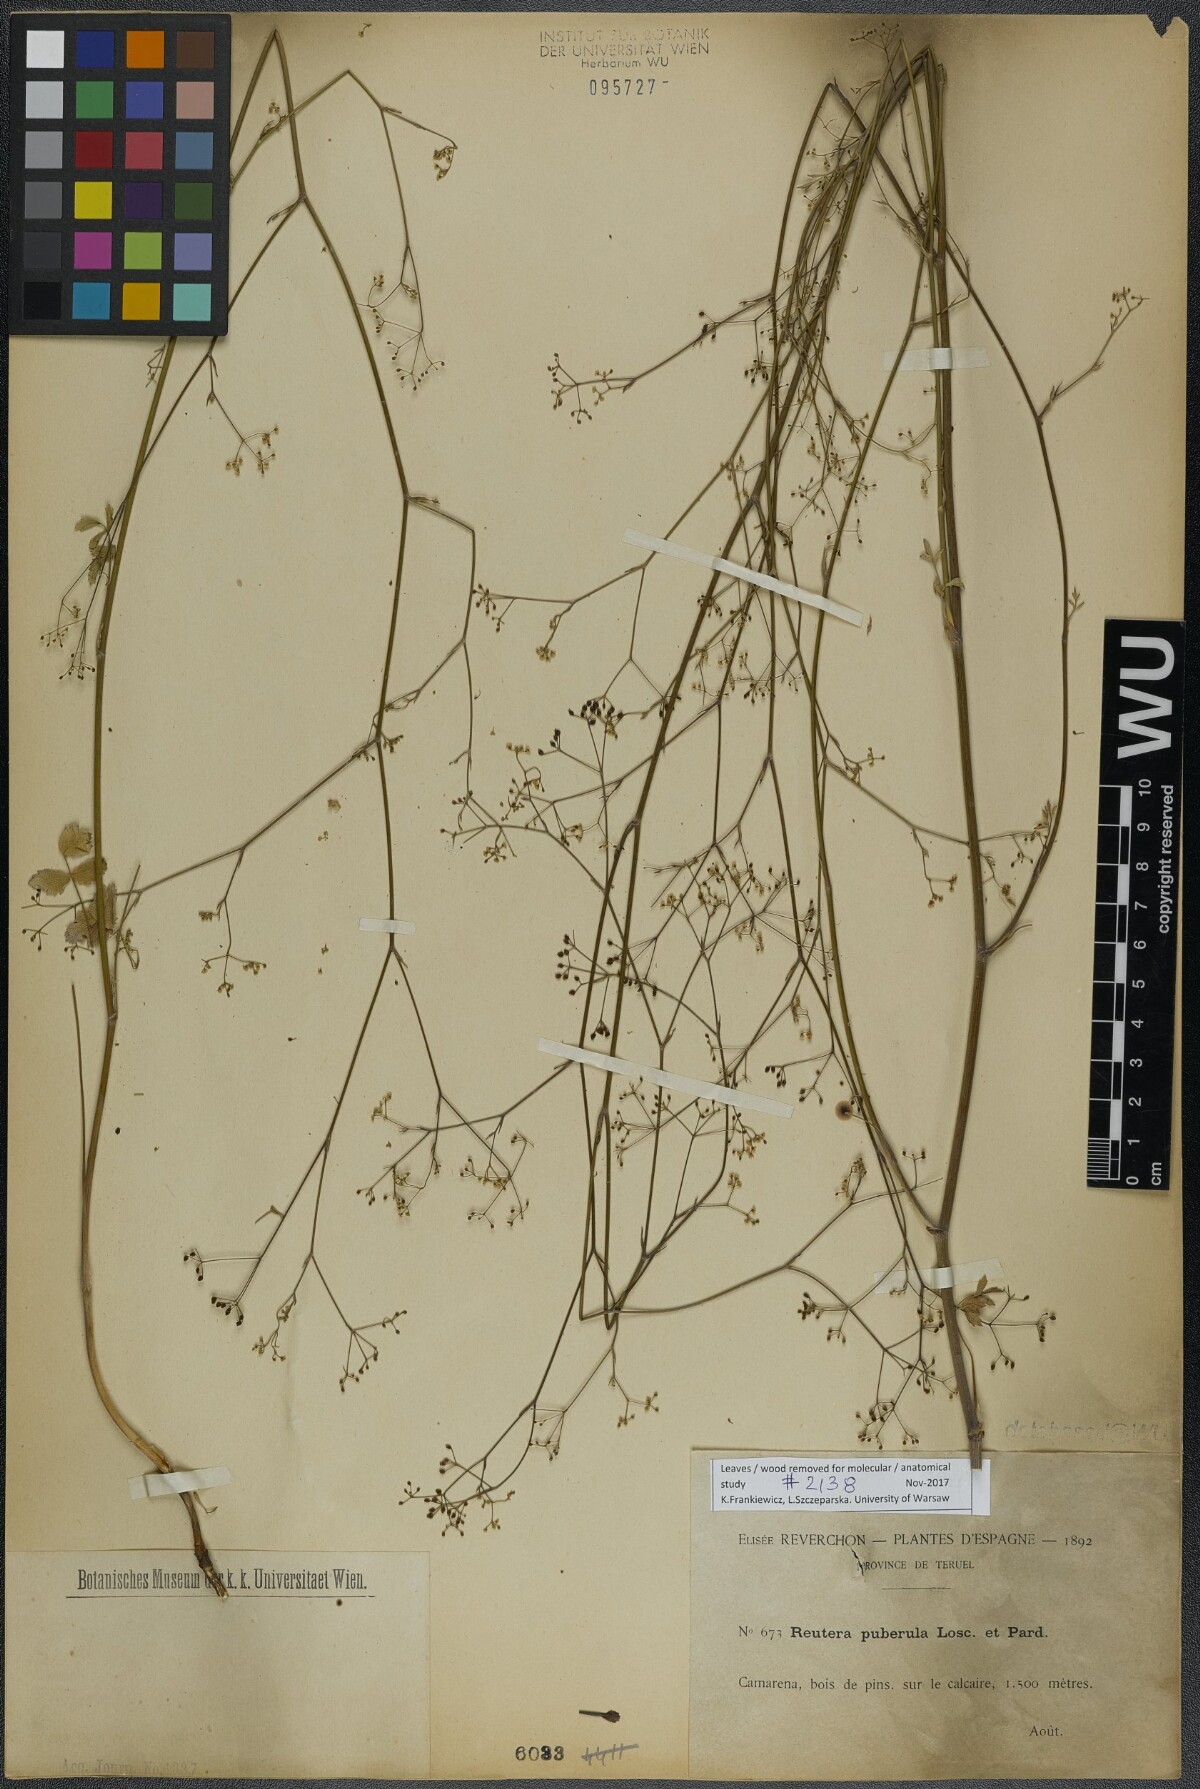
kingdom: Plantae
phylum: Tracheophyta
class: Magnoliopsida
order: Apiales
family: Apiaceae
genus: Pimpinella
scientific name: Pimpinella propinqua
